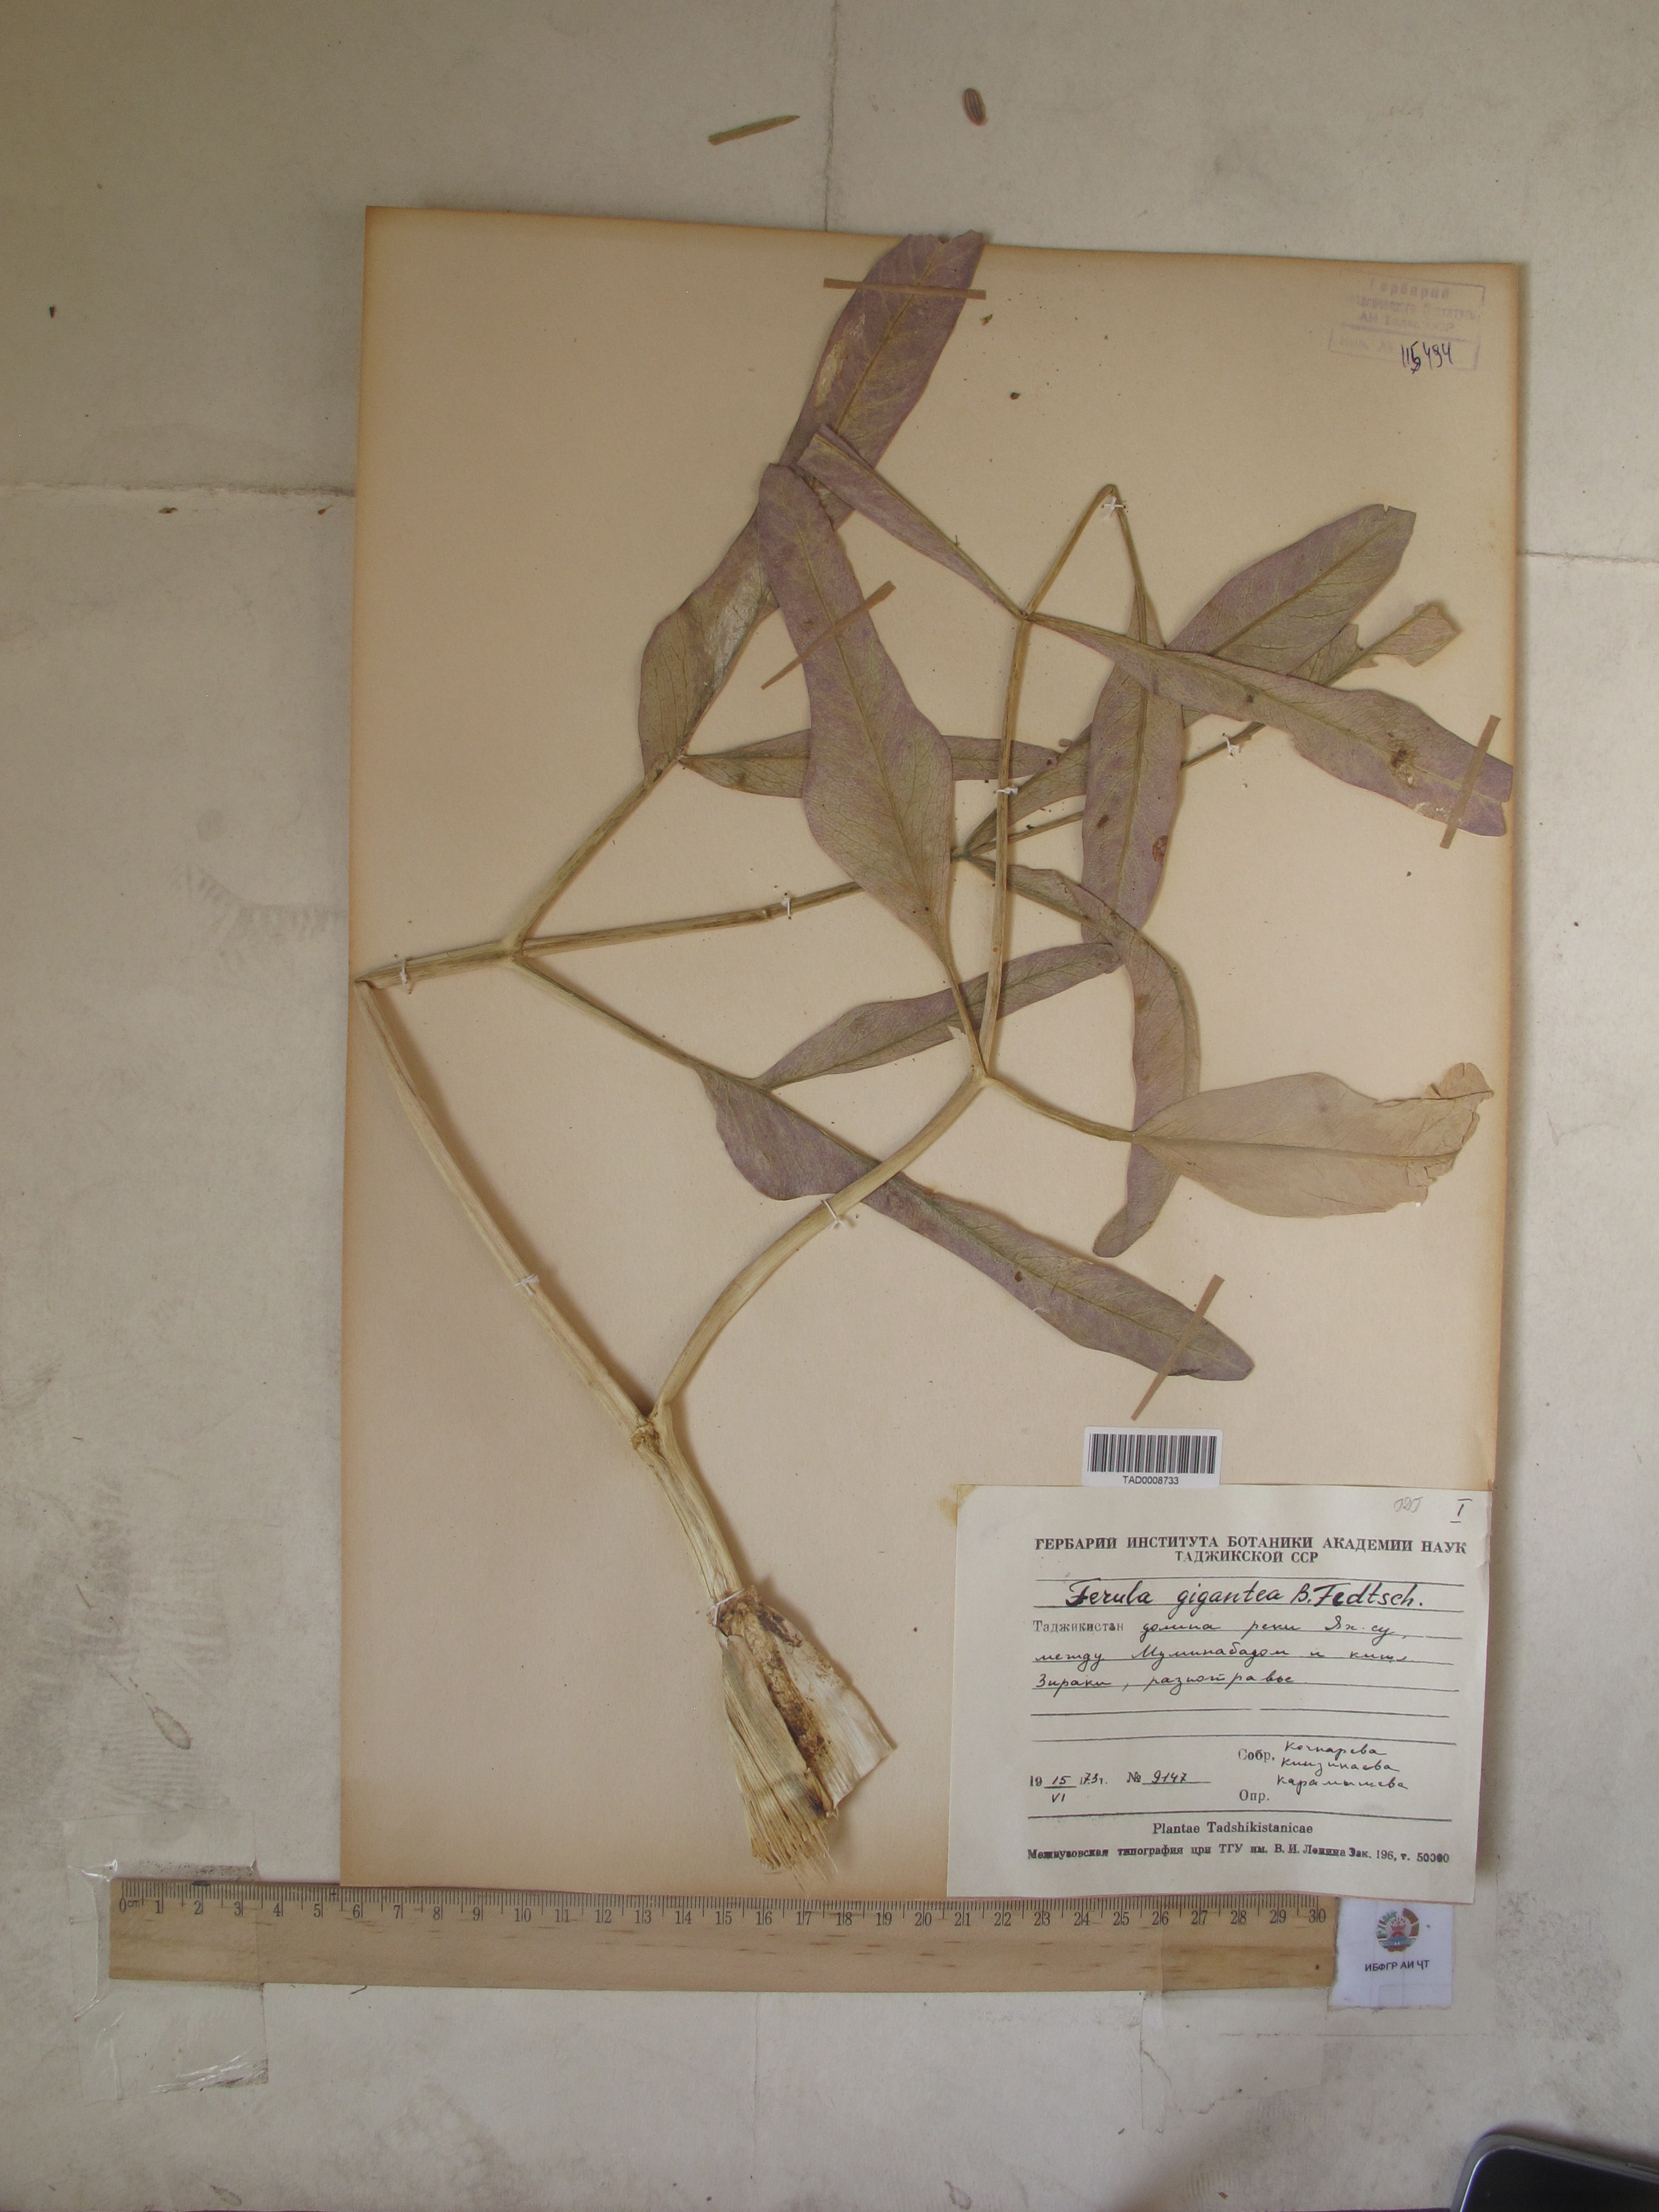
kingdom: Plantae
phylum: Tracheophyta
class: Magnoliopsida
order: Apiales
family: Apiaceae
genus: Ferula
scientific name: Ferula gigantea
